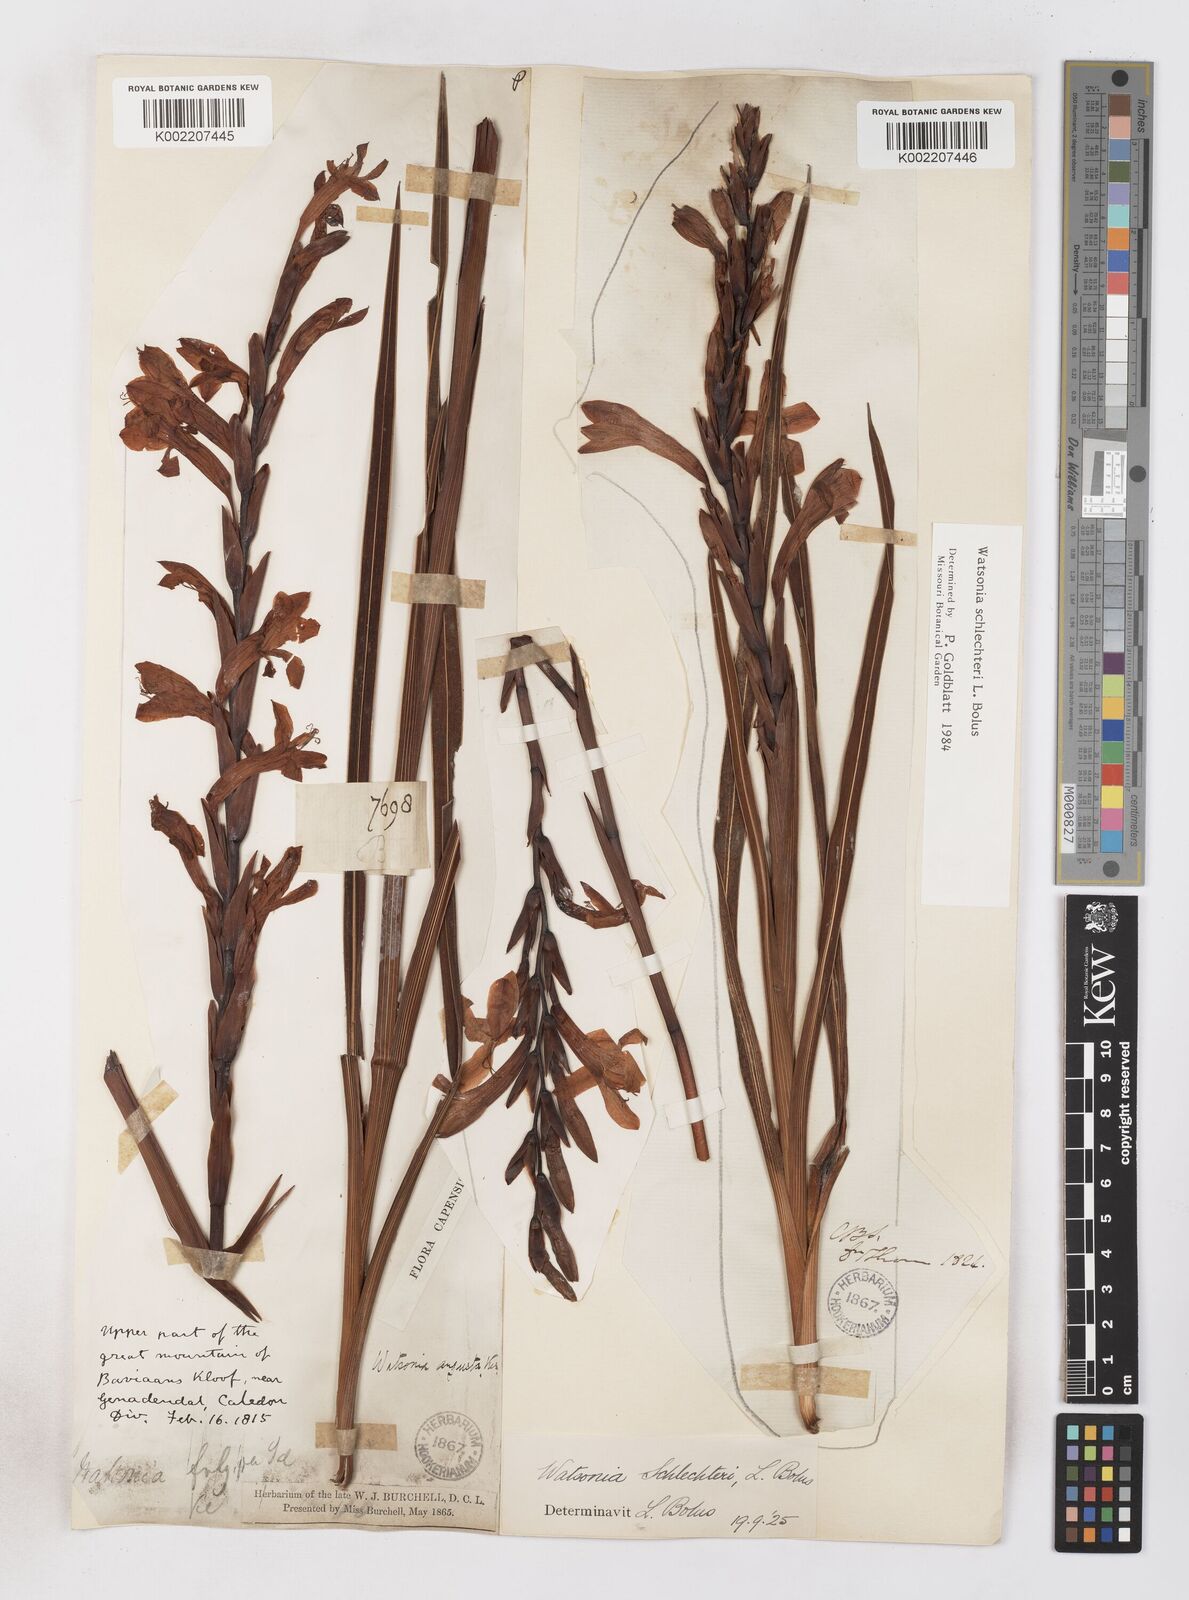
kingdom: Plantae
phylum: Tracheophyta
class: Liliopsida
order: Asparagales
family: Iridaceae
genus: Watsonia
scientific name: Watsonia schlechteri
